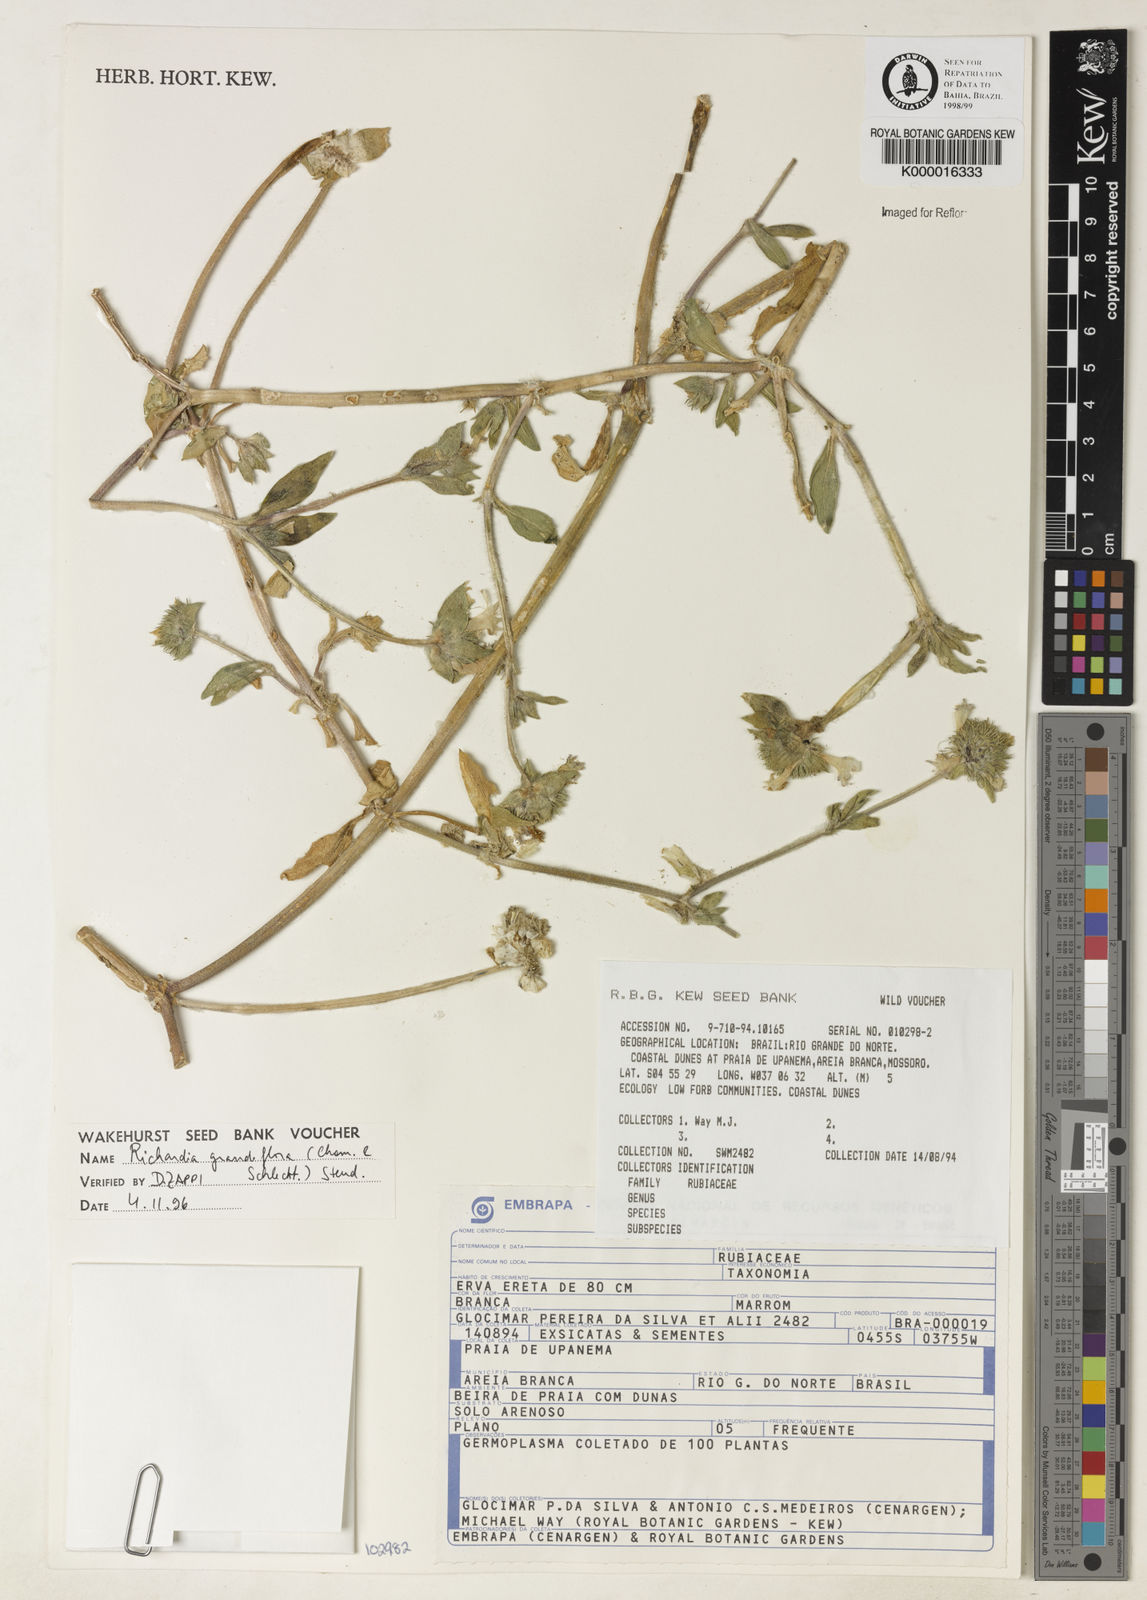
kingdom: Plantae
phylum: Tracheophyta
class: Magnoliopsida
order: Gentianales
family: Rubiaceae
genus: Richardia
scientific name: Richardia grandiflora
